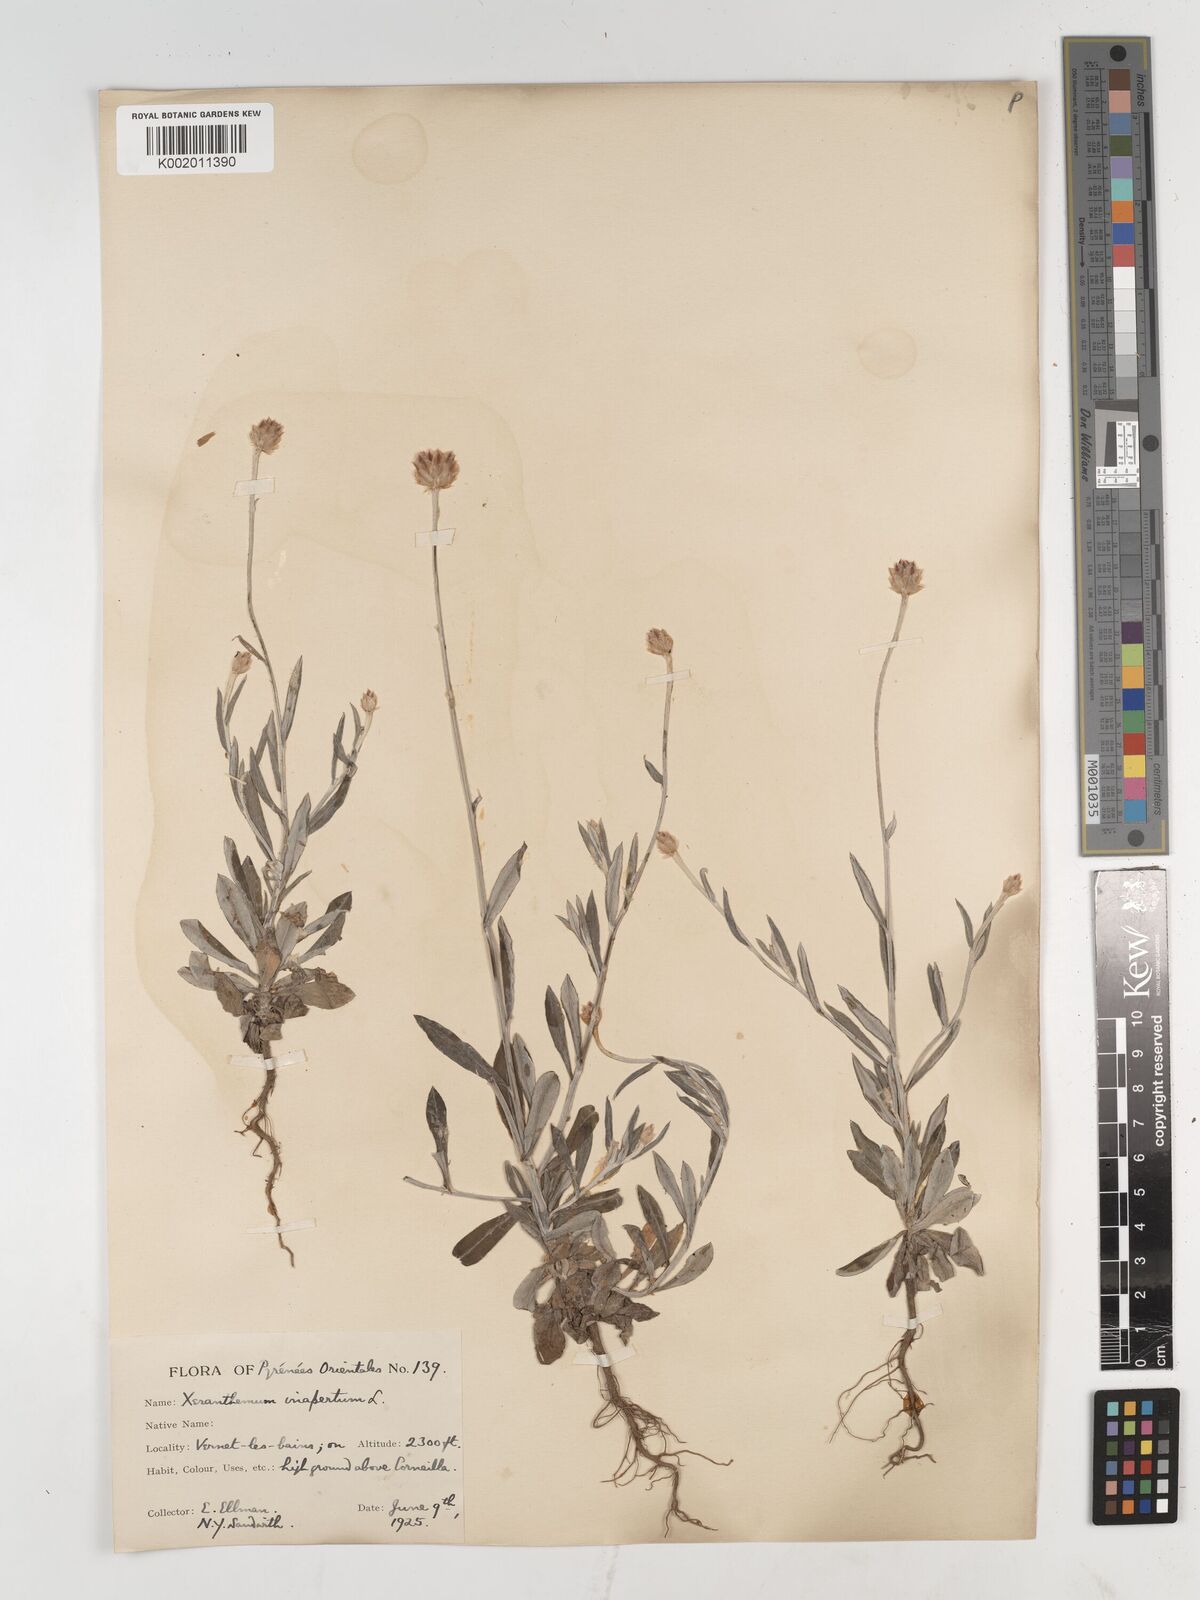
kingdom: Plantae
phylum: Tracheophyta
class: Magnoliopsida
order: Asterales
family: Asteraceae
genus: Xeranthemum
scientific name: Xeranthemum inapertum
